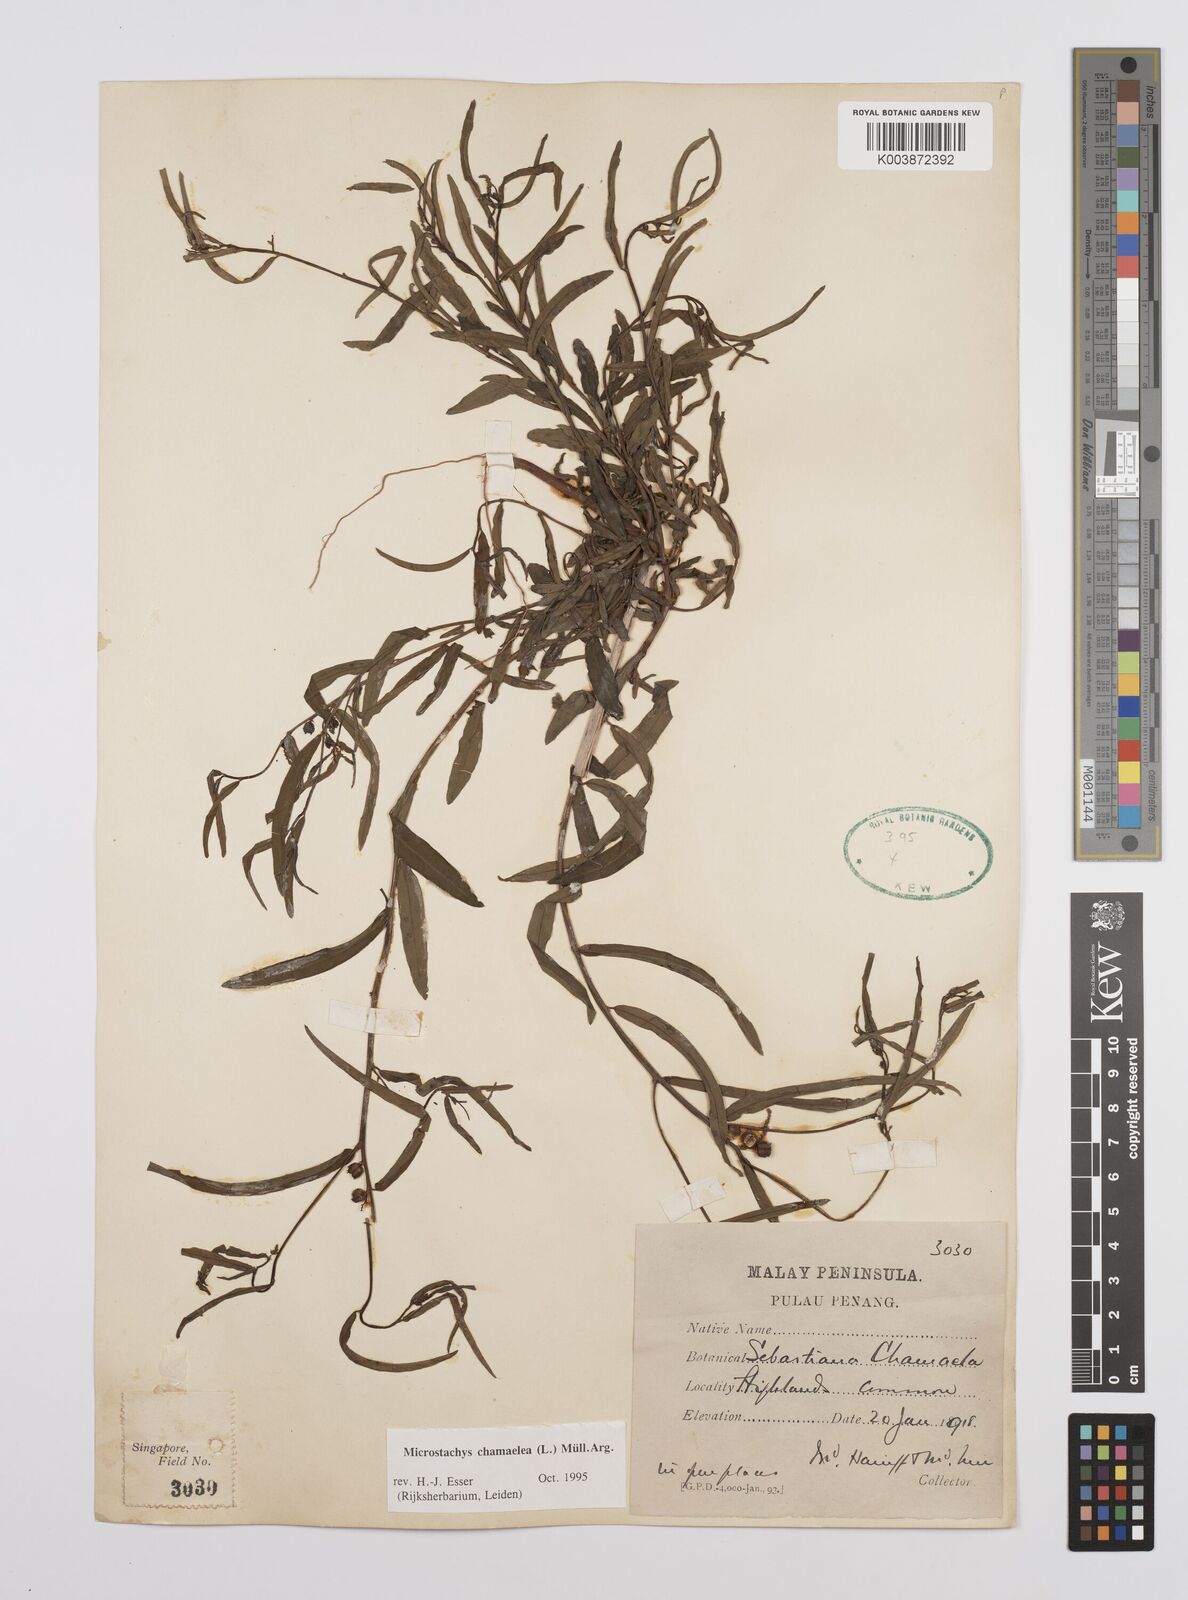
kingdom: Plantae
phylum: Tracheophyta
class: Magnoliopsida
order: Malpighiales
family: Euphorbiaceae
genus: Microstachys
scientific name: Microstachys chamaelea
